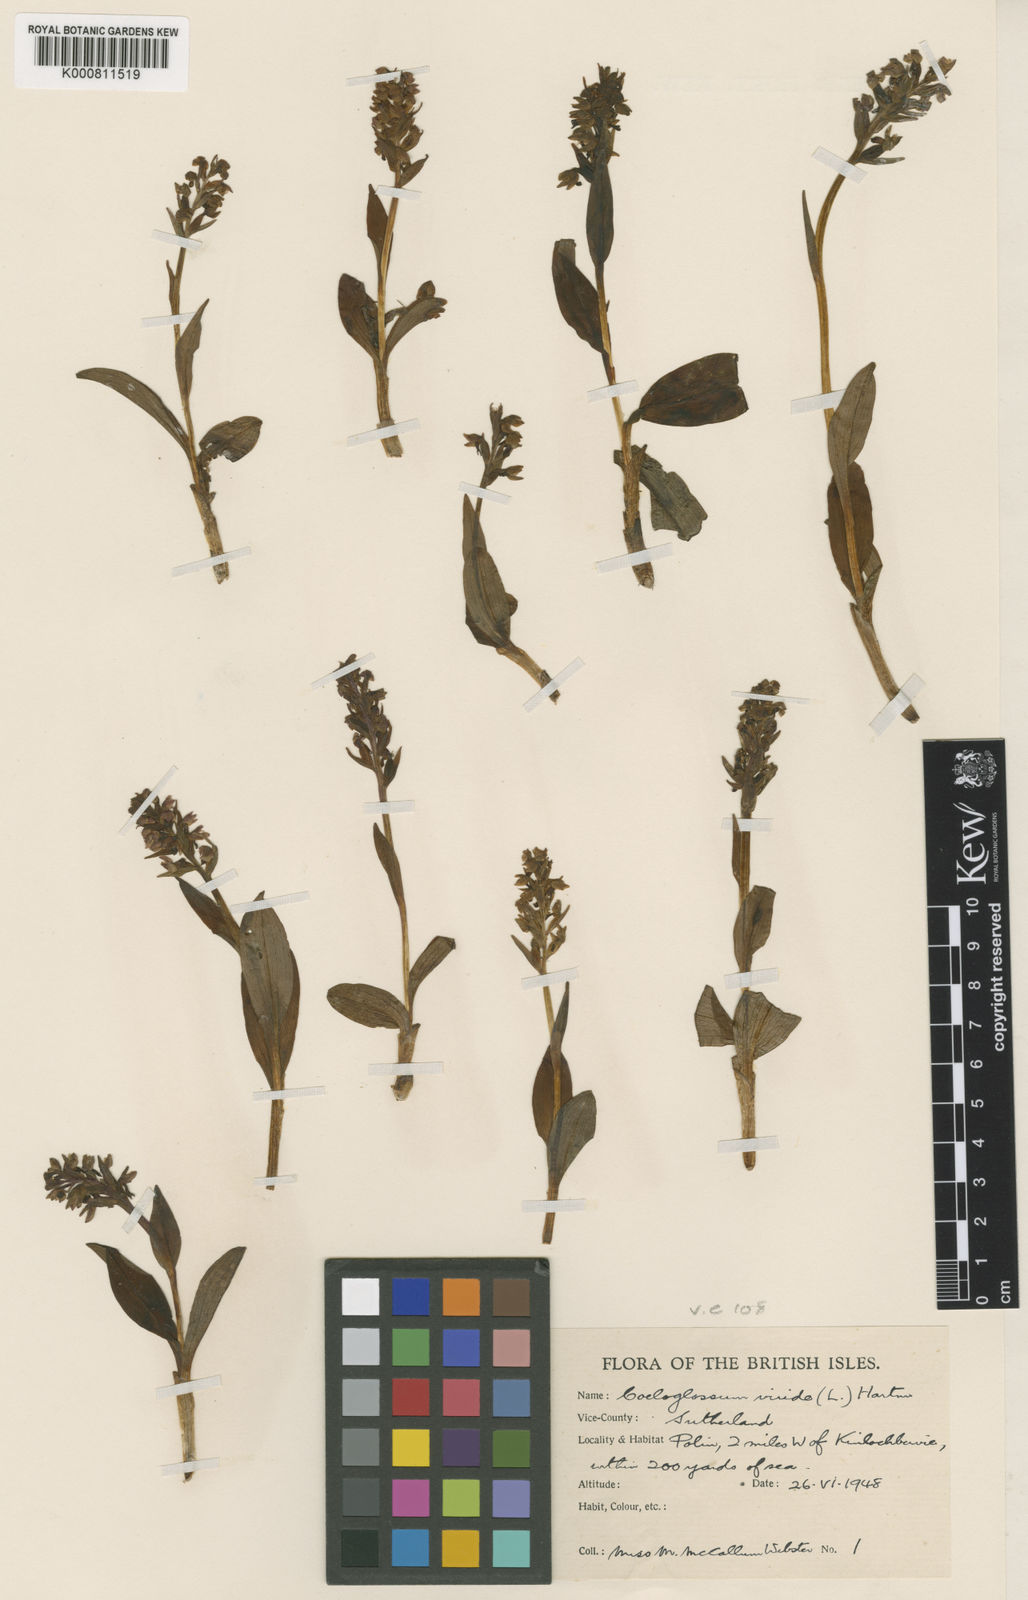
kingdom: Plantae
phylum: Tracheophyta
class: Liliopsida
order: Asparagales
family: Orchidaceae
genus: Dactylorhiza
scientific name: Dactylorhiza viridis
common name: Longbract frog orchid
